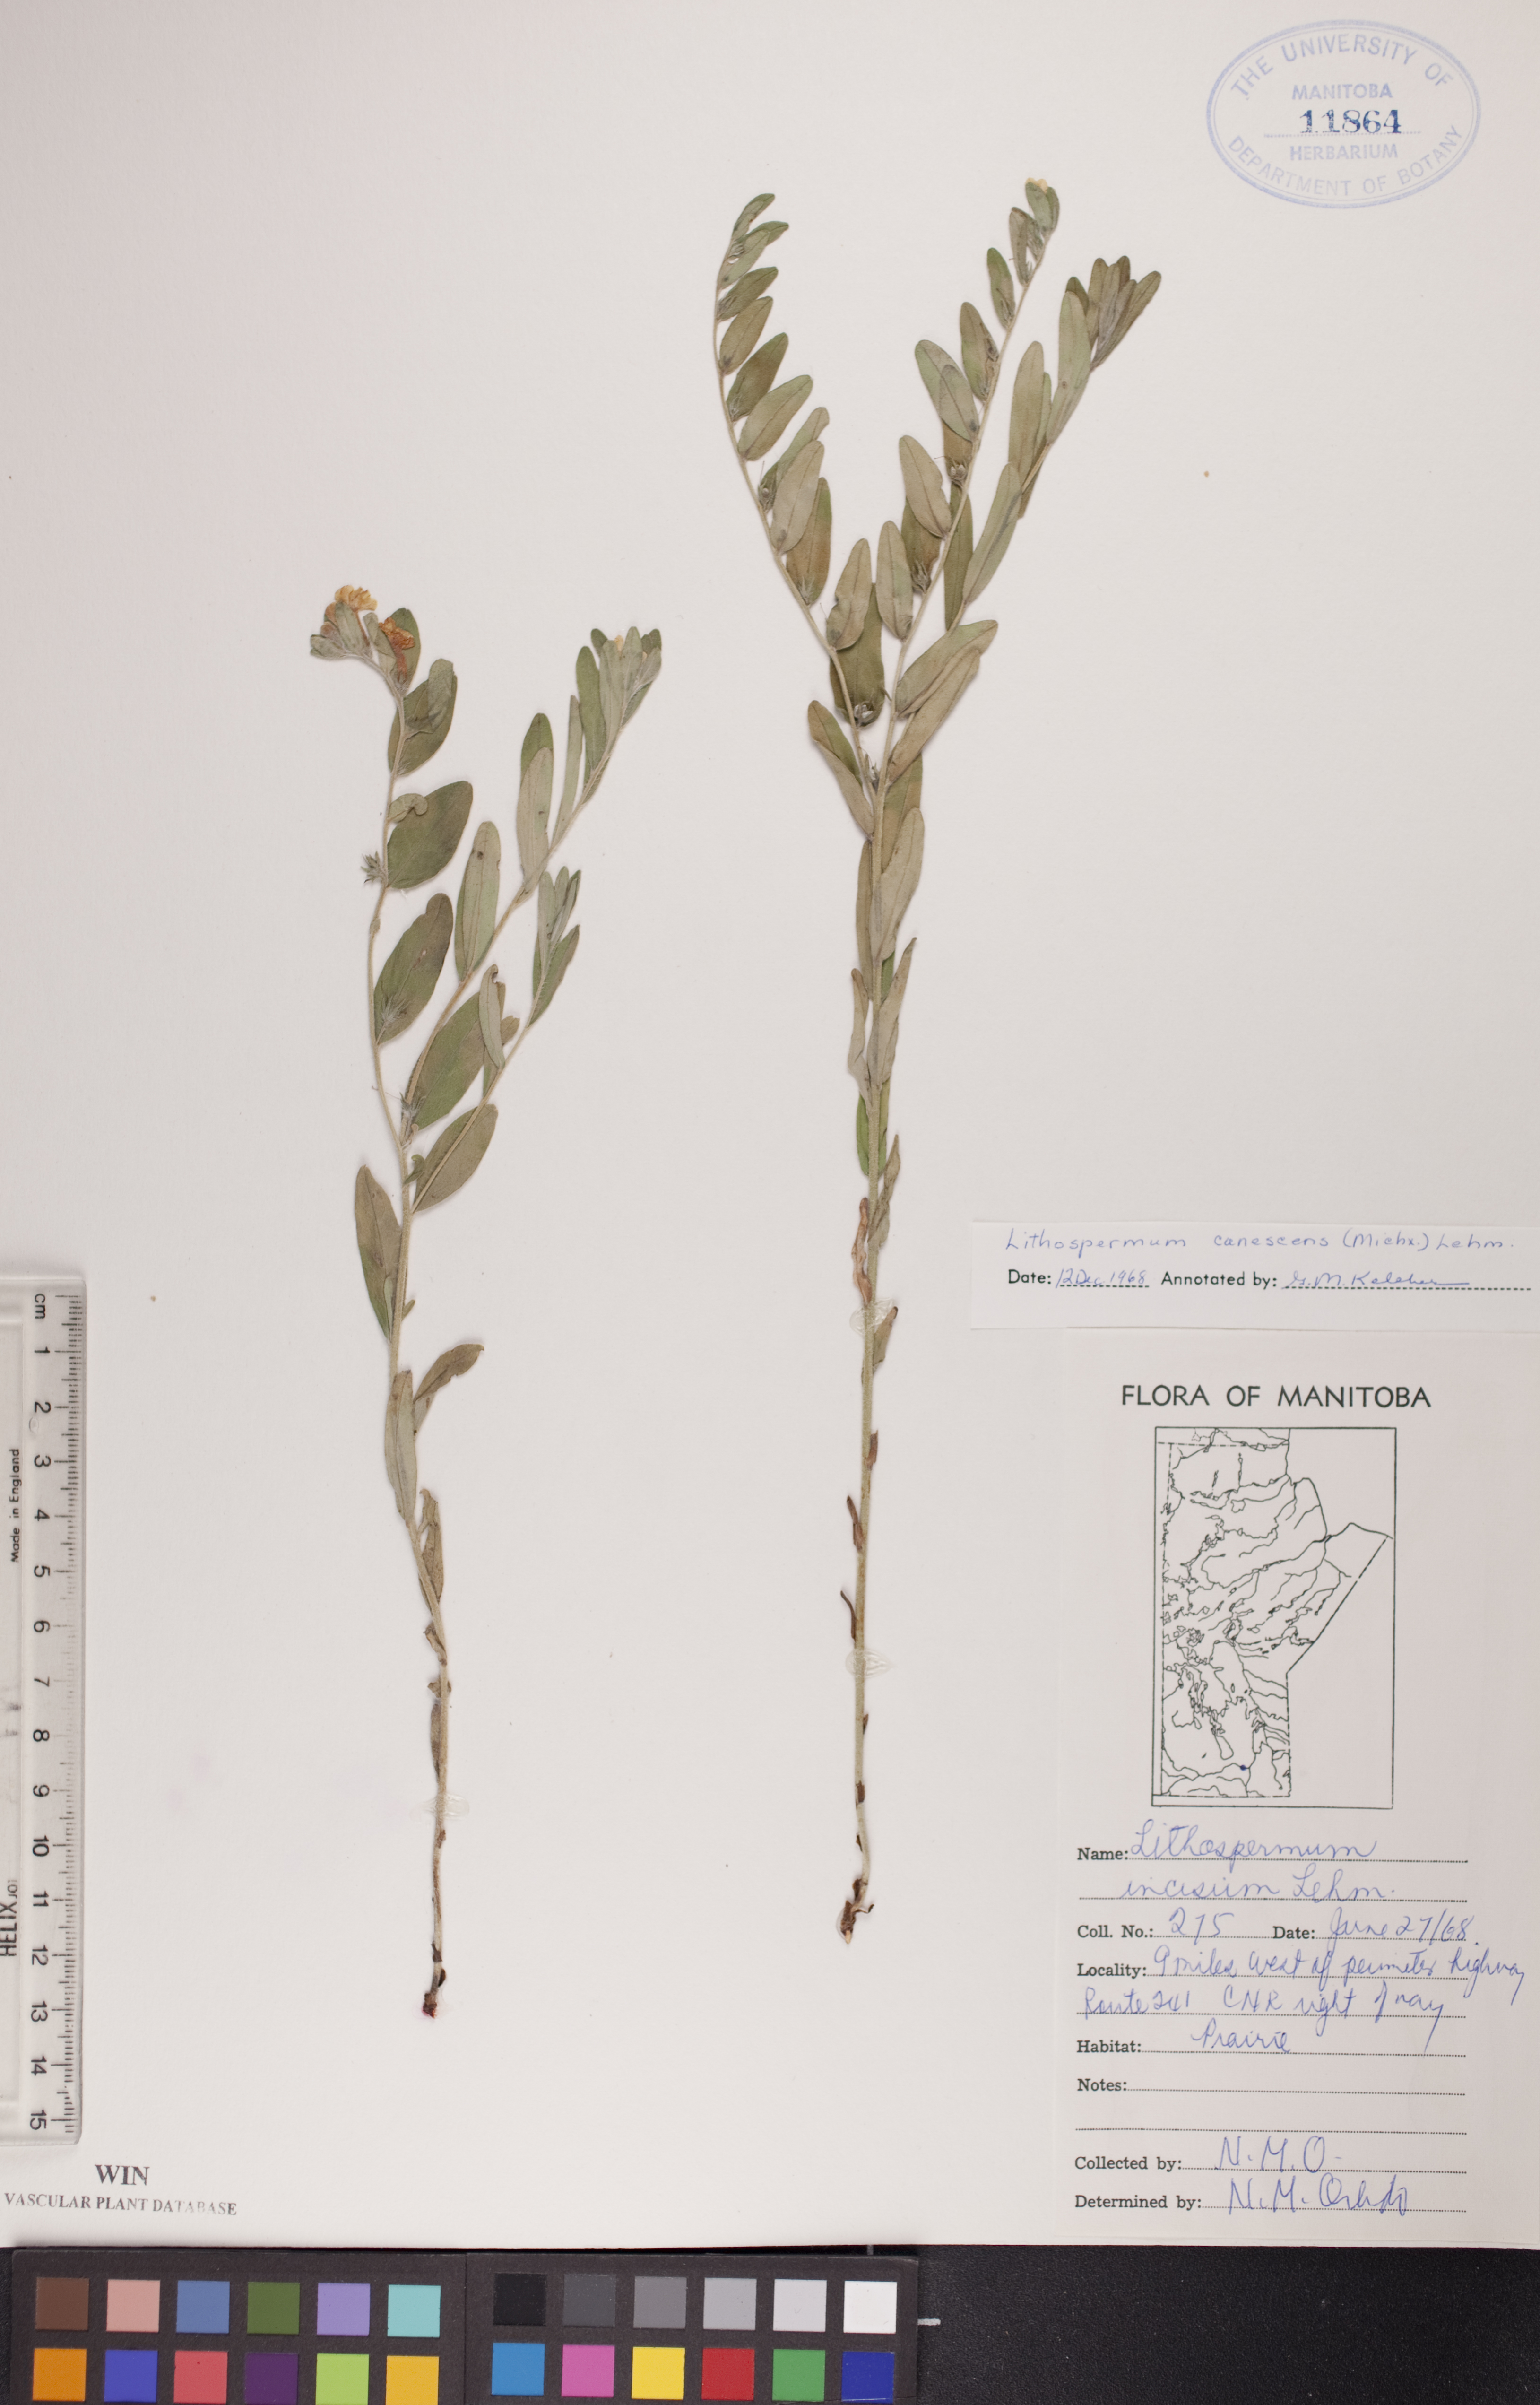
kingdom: Plantae
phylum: Tracheophyta
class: Magnoliopsida
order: Boraginales
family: Boraginaceae
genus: Lithospermum
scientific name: Lithospermum canescens
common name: Hoary puccoon
